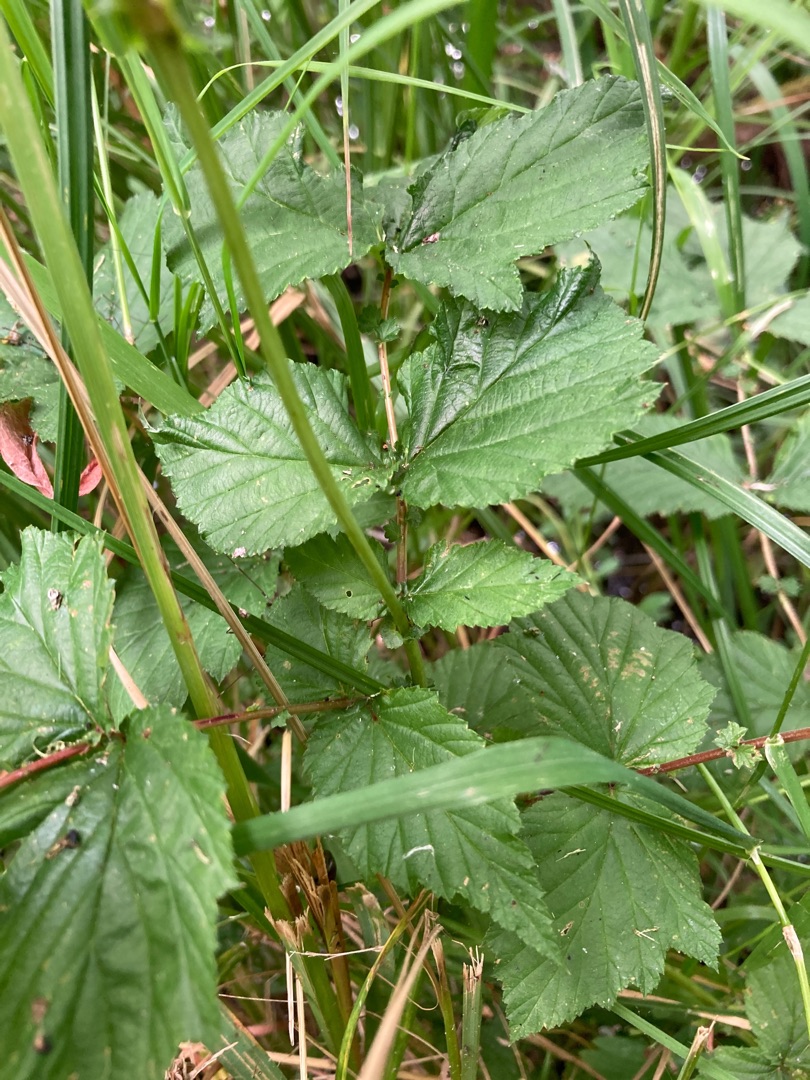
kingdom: Plantae
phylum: Tracheophyta
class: Magnoliopsida
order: Rosales
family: Rosaceae
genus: Filipendula
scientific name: Filipendula ulmaria
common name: Almindelig mjødurt
